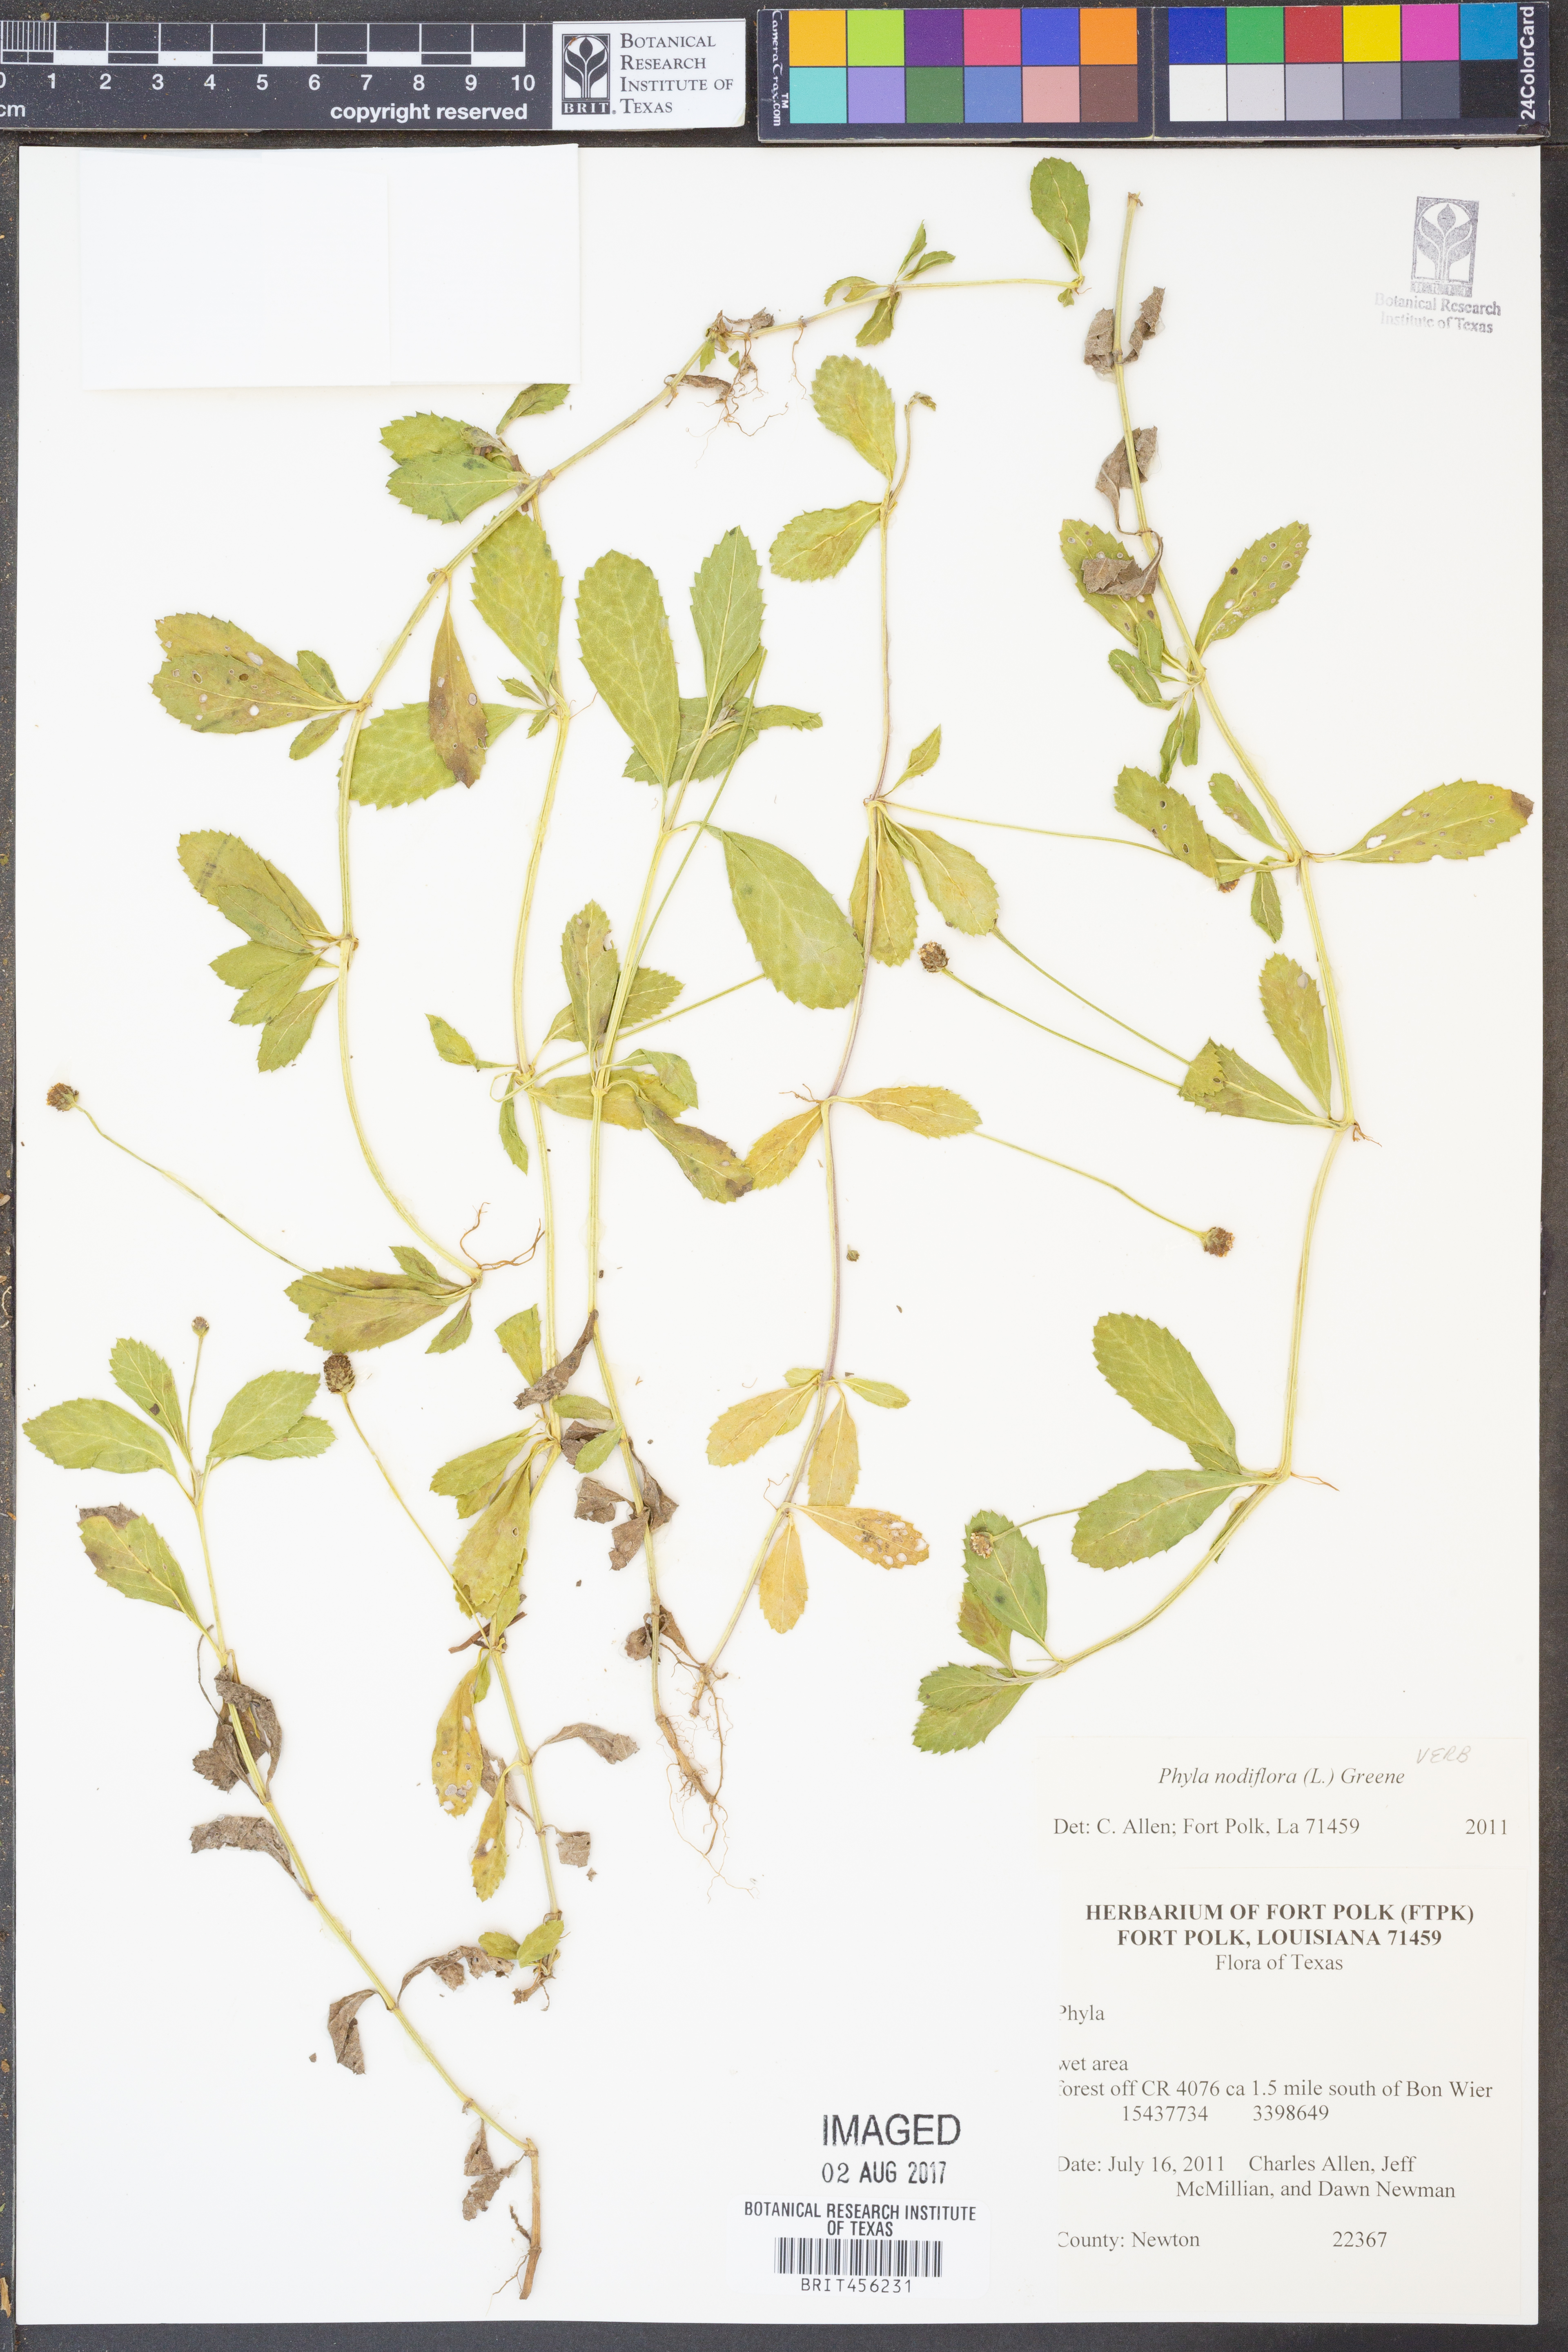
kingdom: Plantae
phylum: Tracheophyta
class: Magnoliopsida
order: Lamiales
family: Verbenaceae
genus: Phyla
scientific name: Phyla nodiflora
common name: Frogfruit
